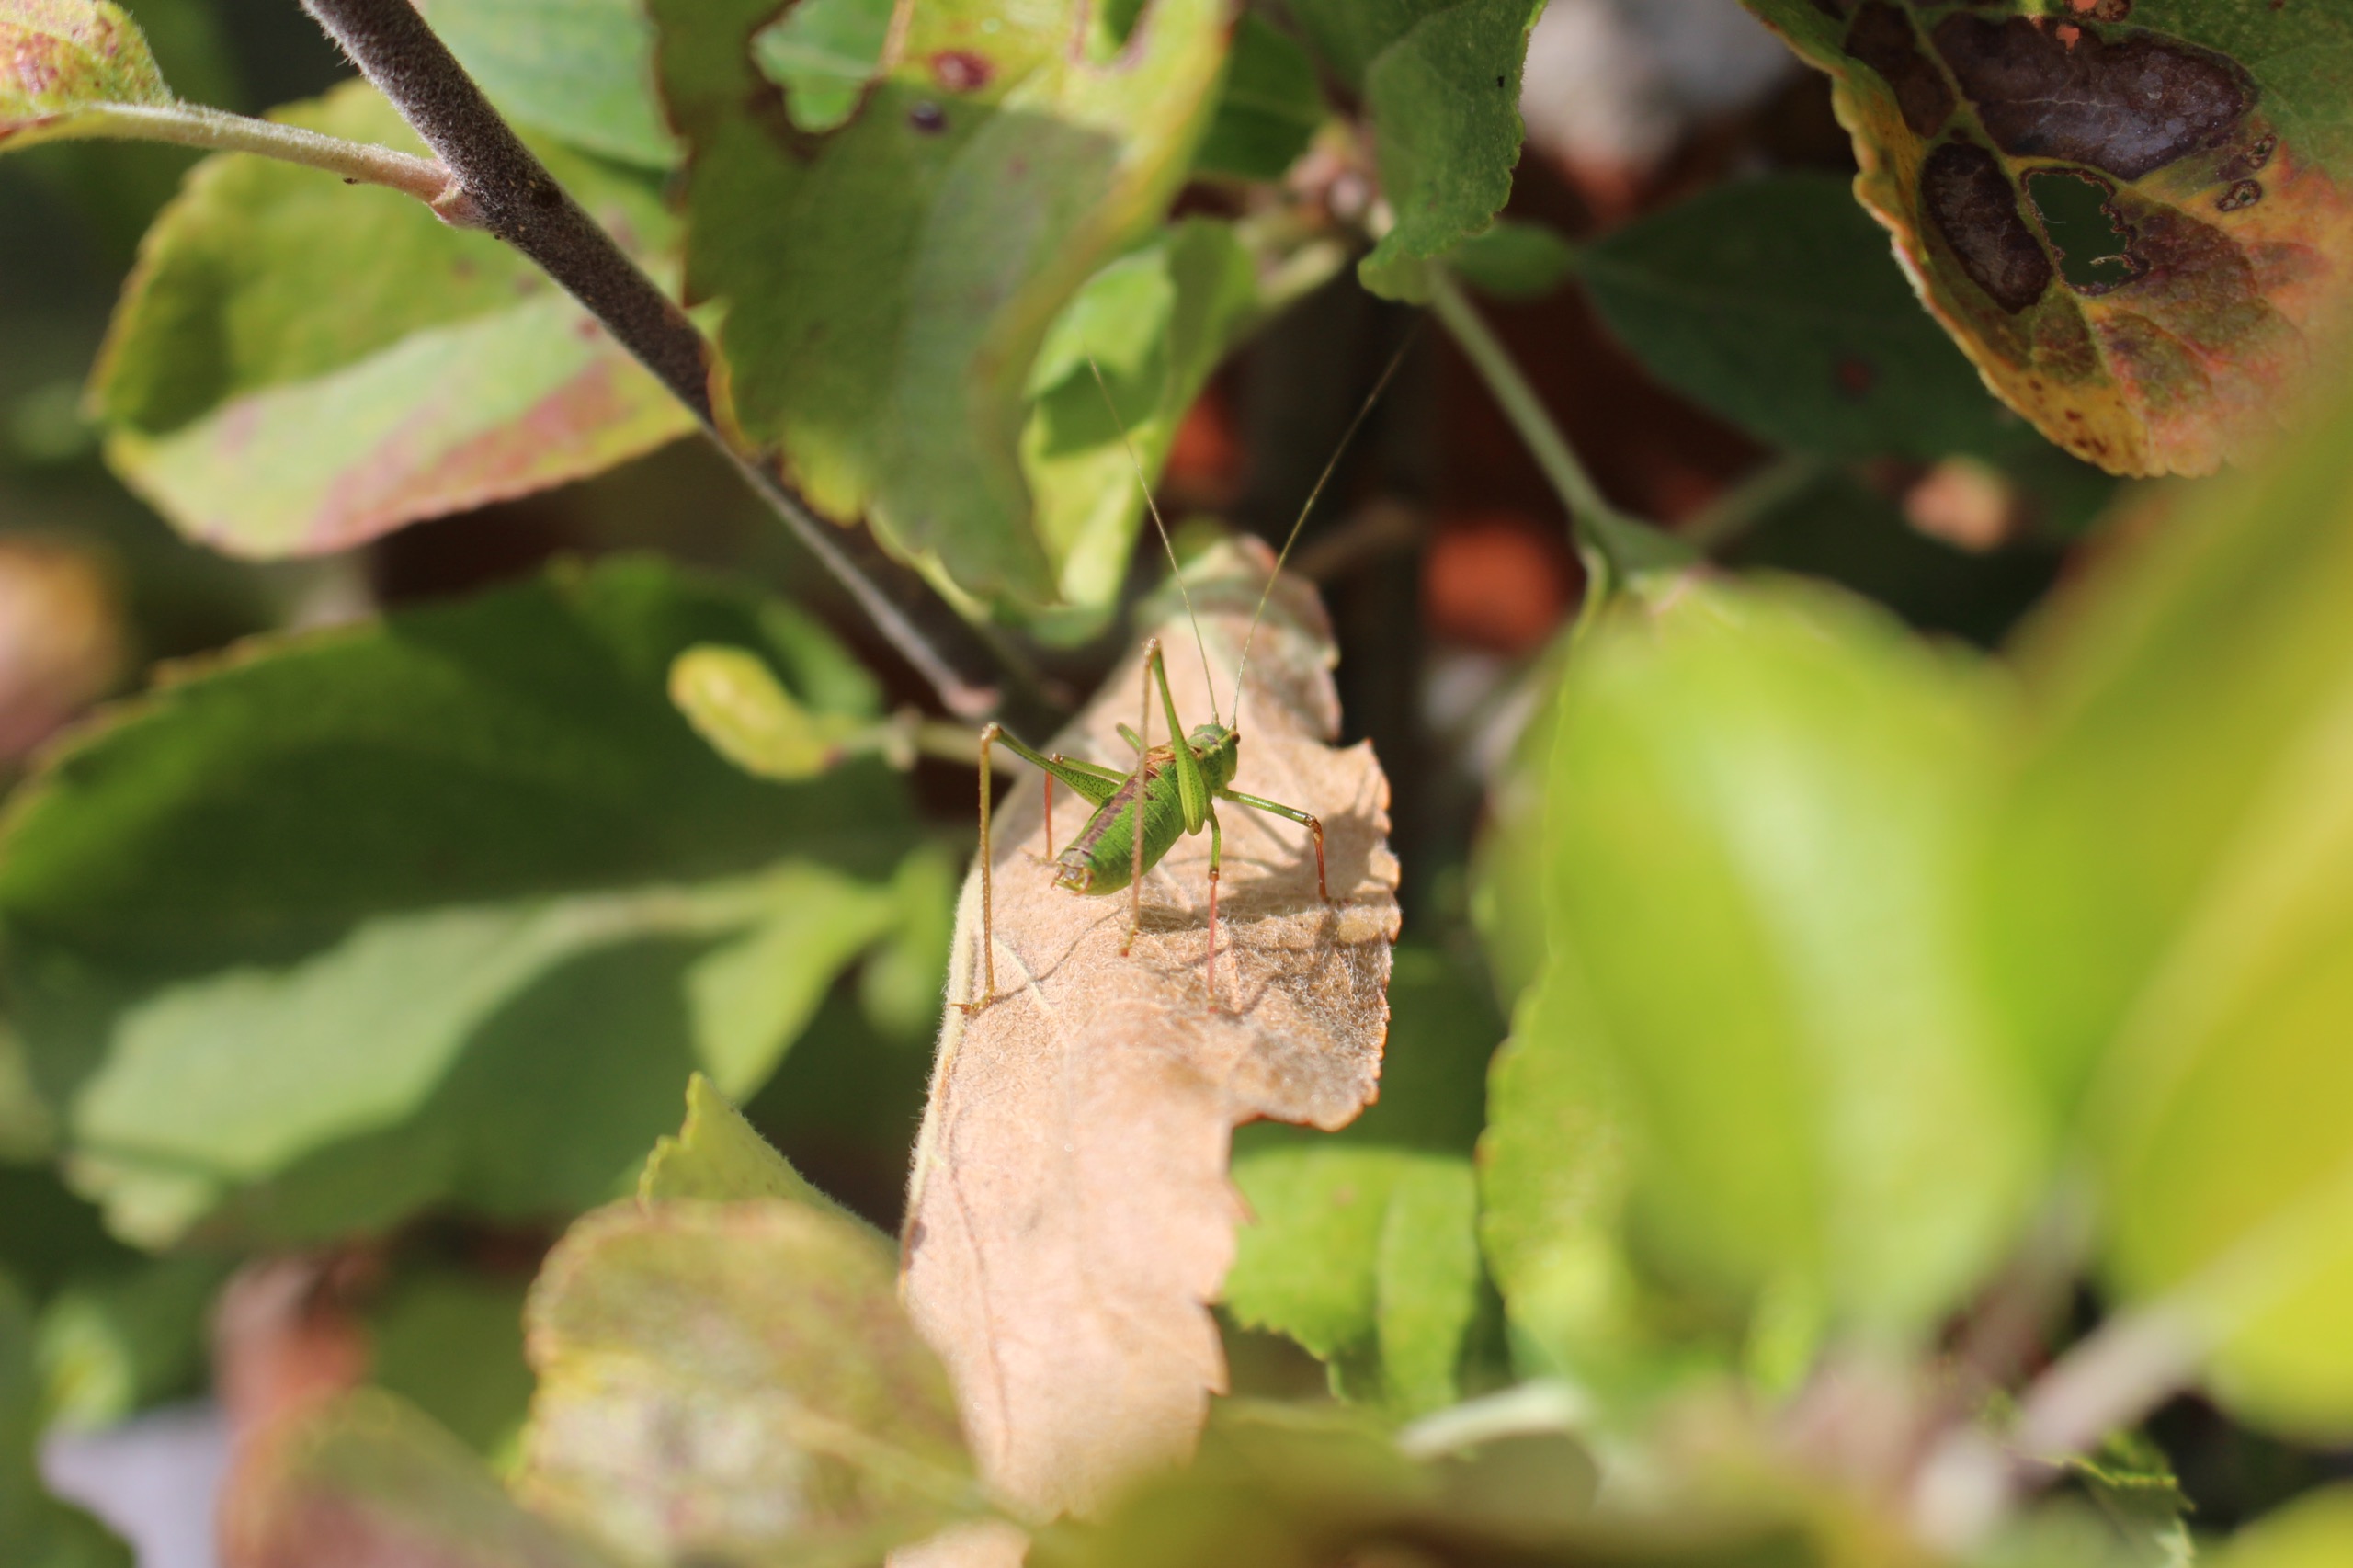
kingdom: Animalia
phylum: Arthropoda
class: Insecta
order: Orthoptera
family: Tettigoniidae
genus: Leptophyes
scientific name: Leptophyes punctatissima
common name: Krumknivgræshoppe
